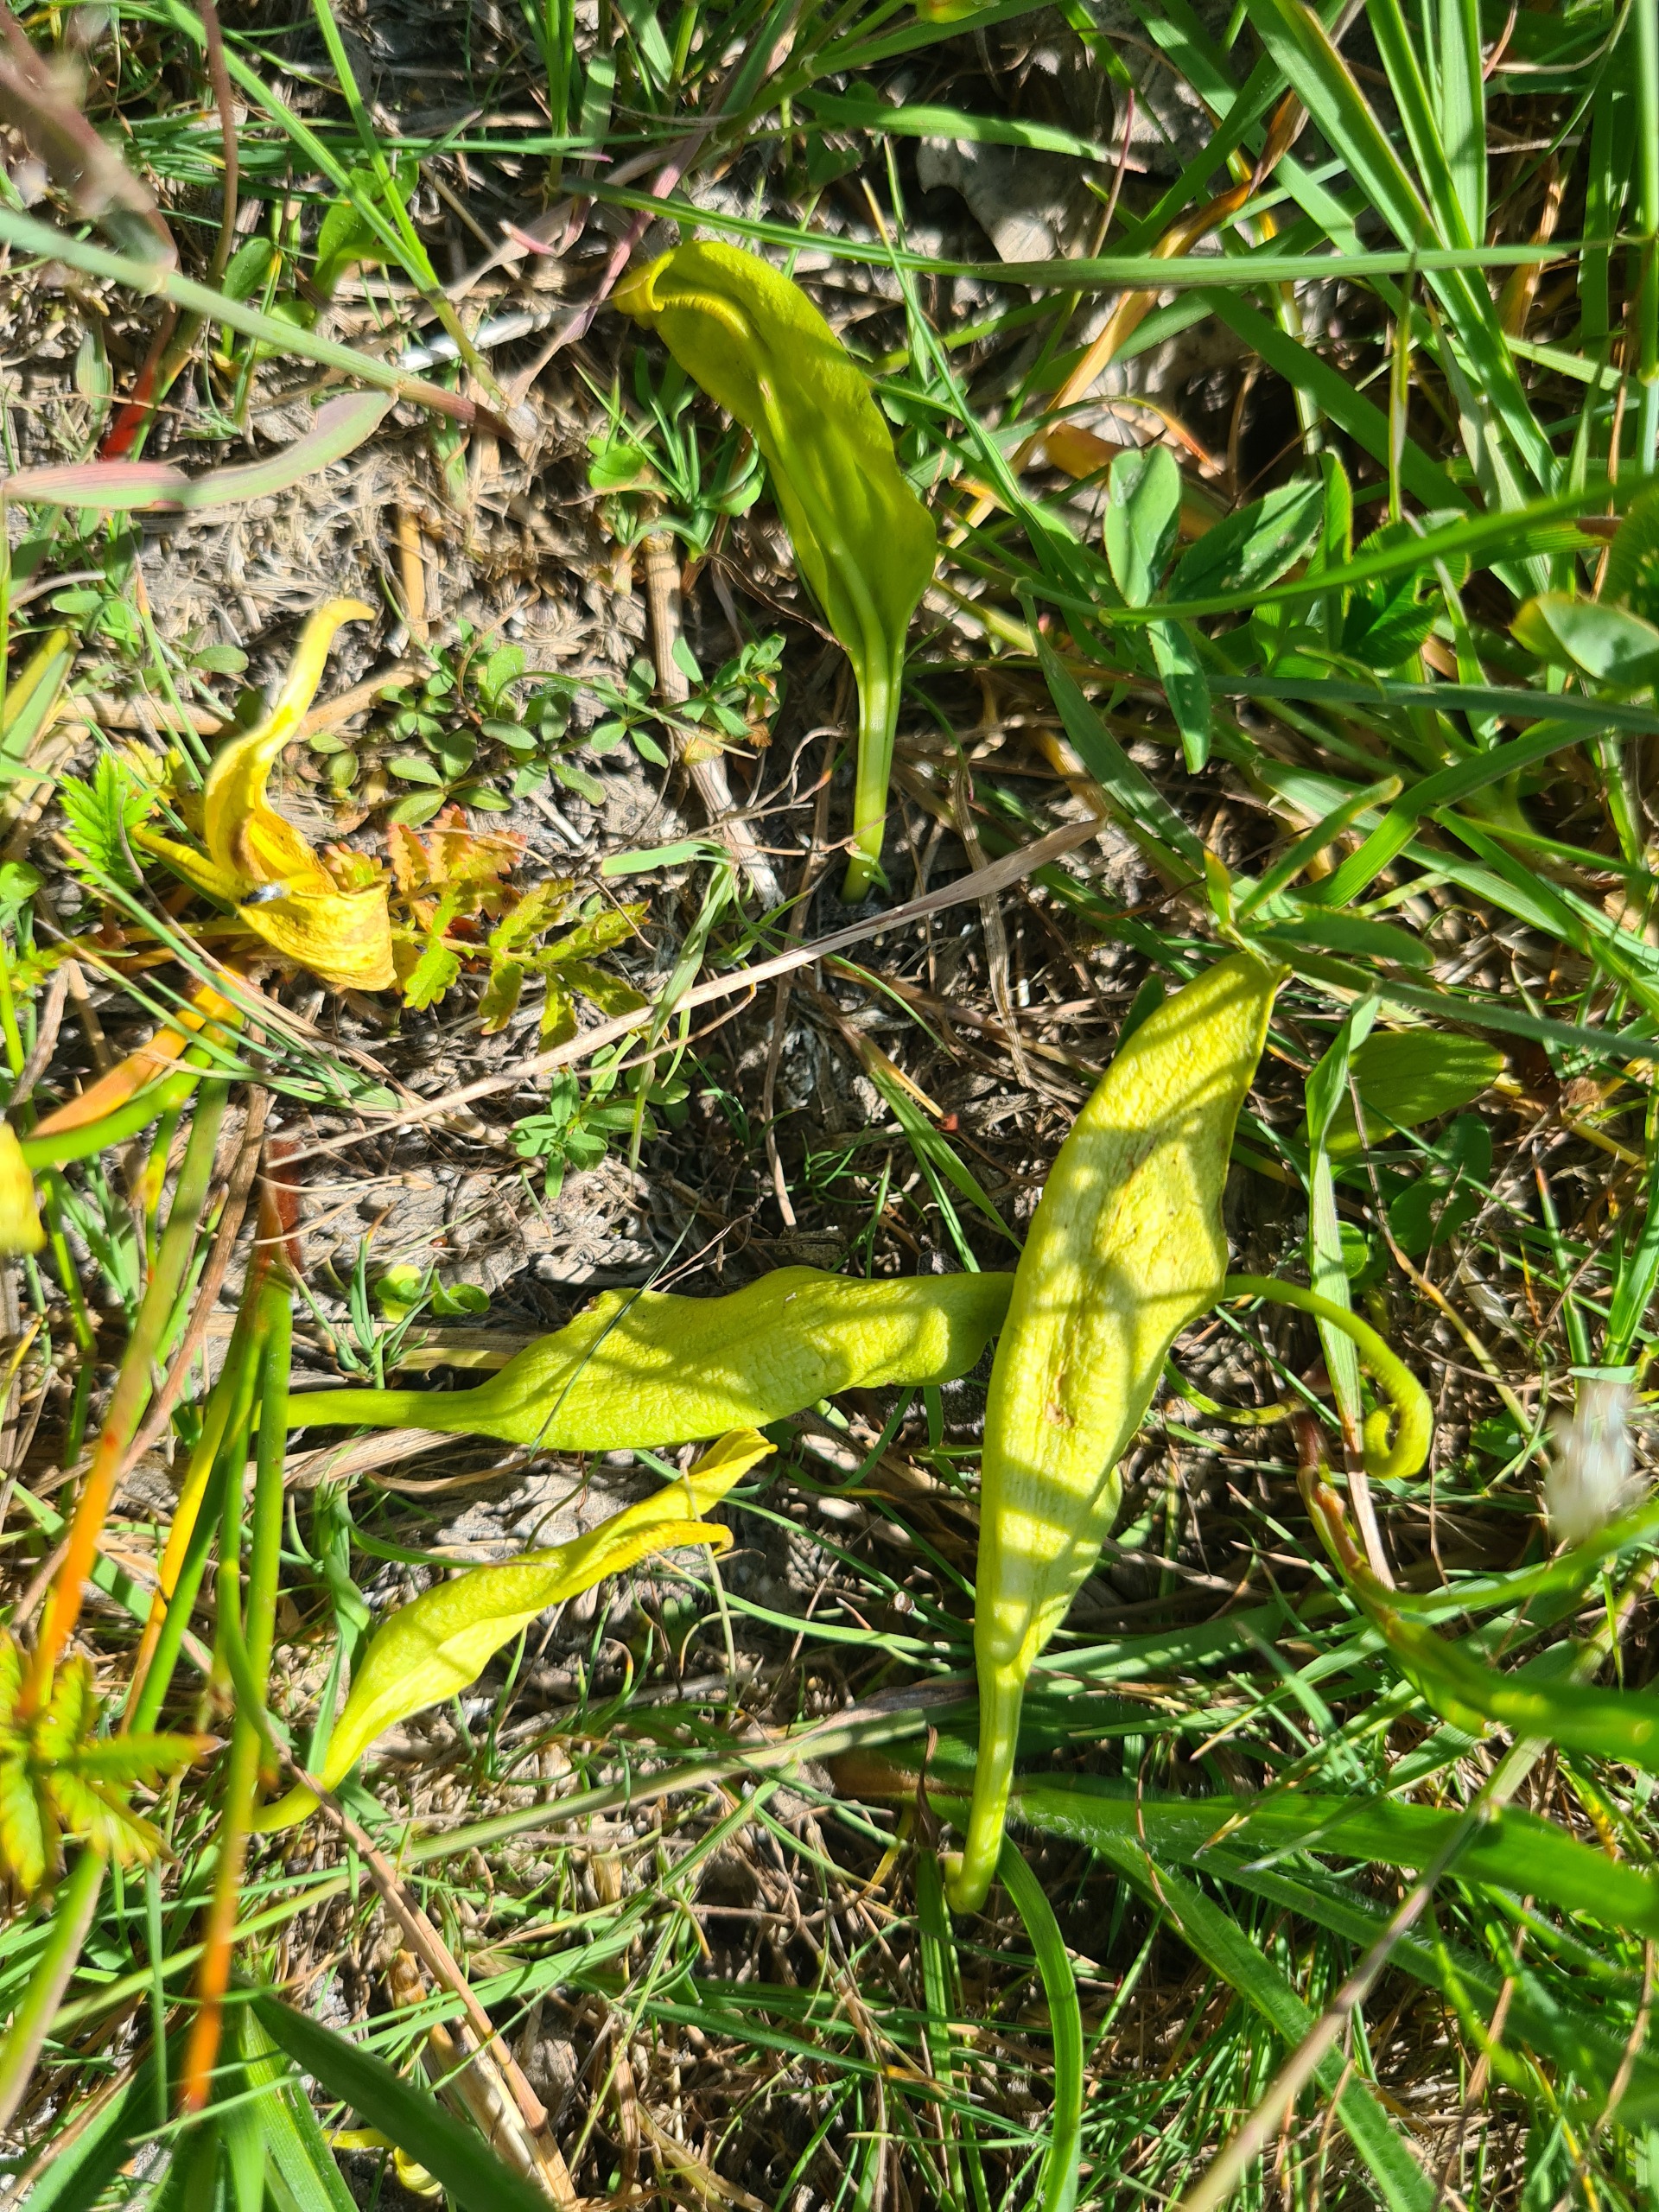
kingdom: Plantae
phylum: Tracheophyta
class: Polypodiopsida
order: Ophioglossales
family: Ophioglossaceae
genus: Ophioglossum
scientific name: Ophioglossum vulgatum
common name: Slangetunge
